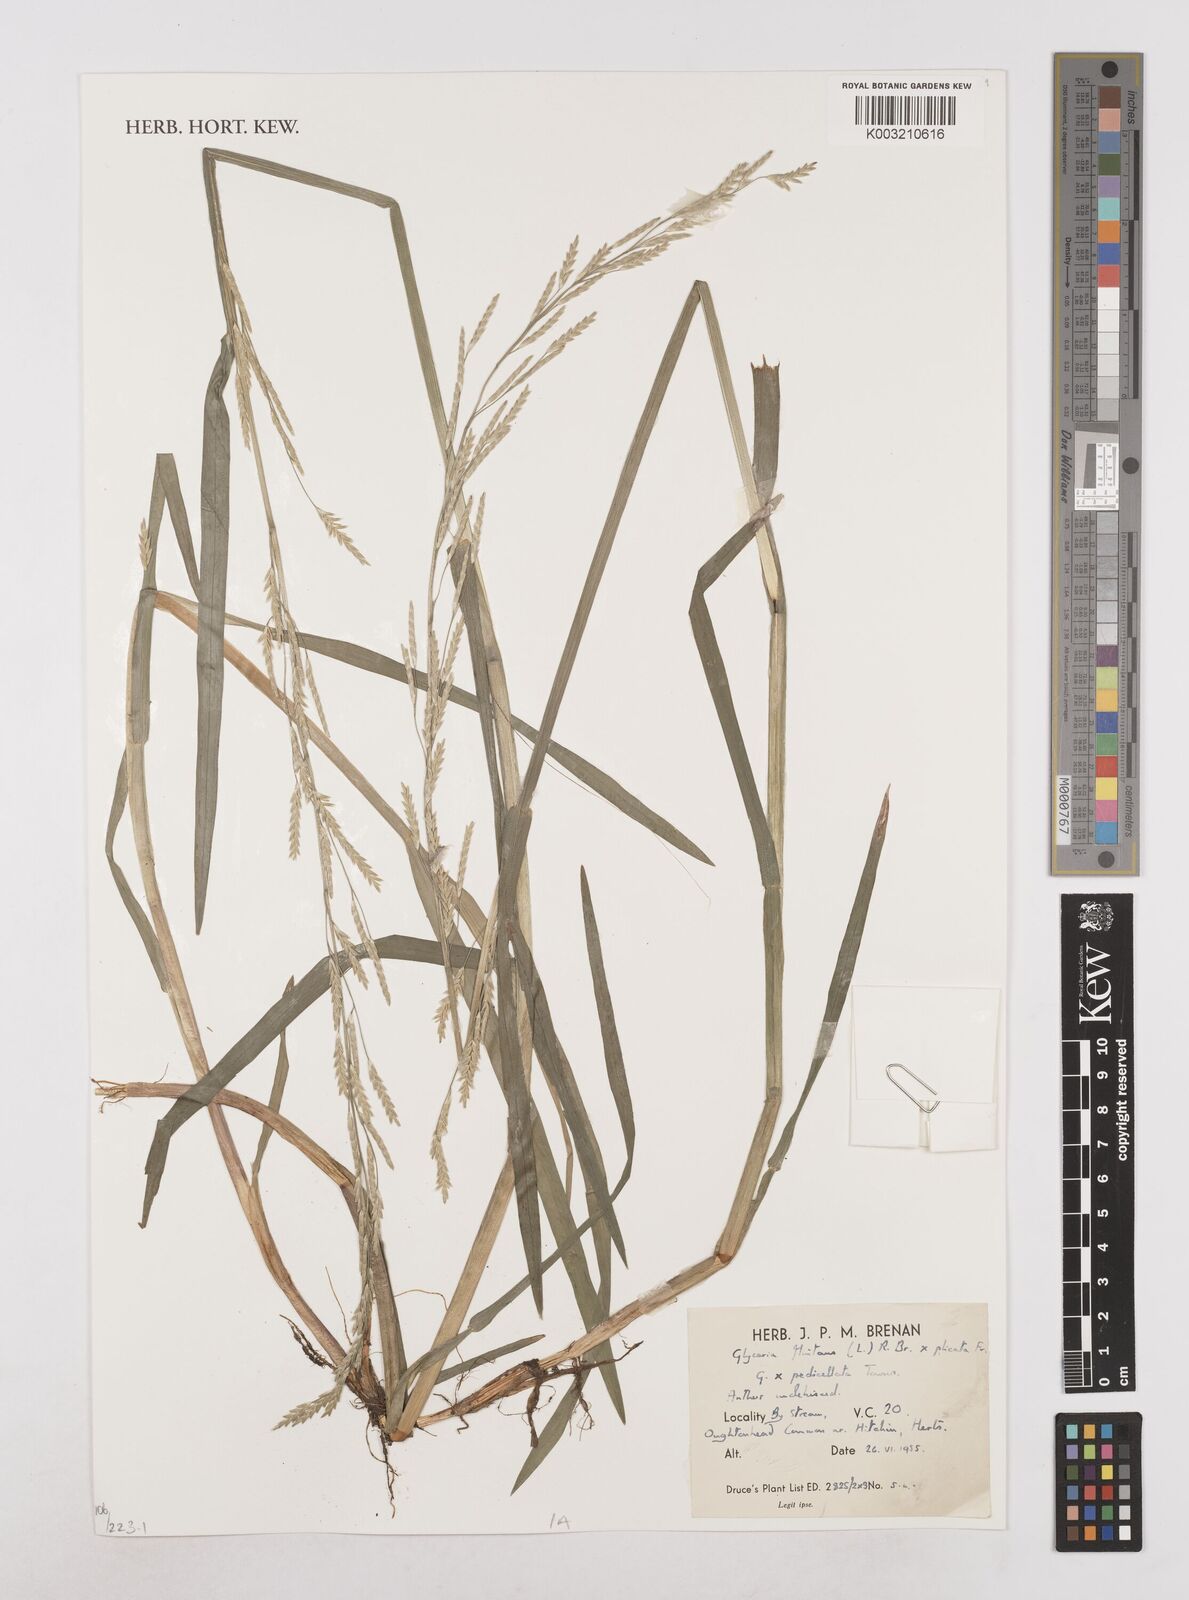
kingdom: Plantae
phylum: Tracheophyta
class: Liliopsida
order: Poales
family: Poaceae
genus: Glyceria
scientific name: Glyceria fluitans
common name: Floating sweet-grass
